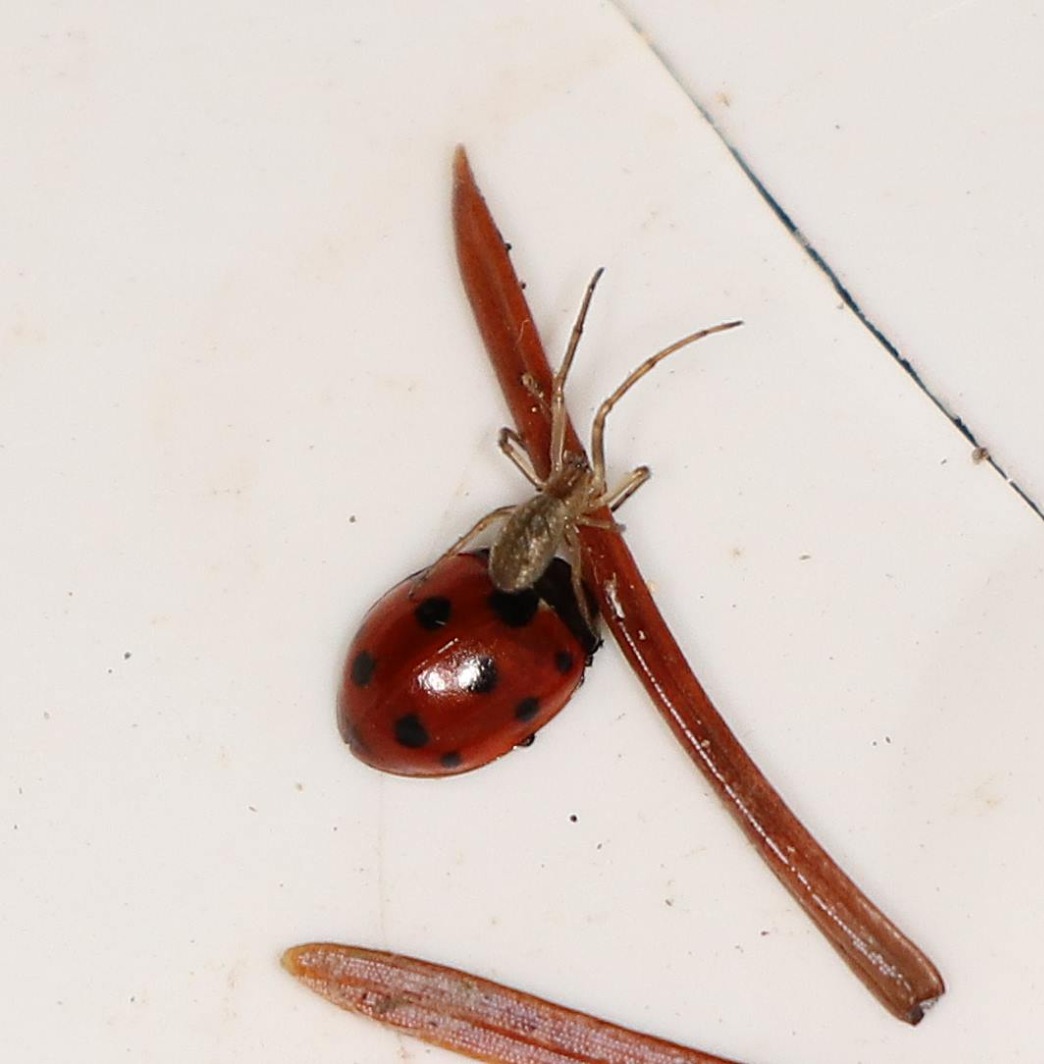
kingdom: Animalia
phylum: Arthropoda
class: Arachnida
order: Araneae
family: Tetragnathidae
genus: Tetragnatha
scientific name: Tetragnatha
